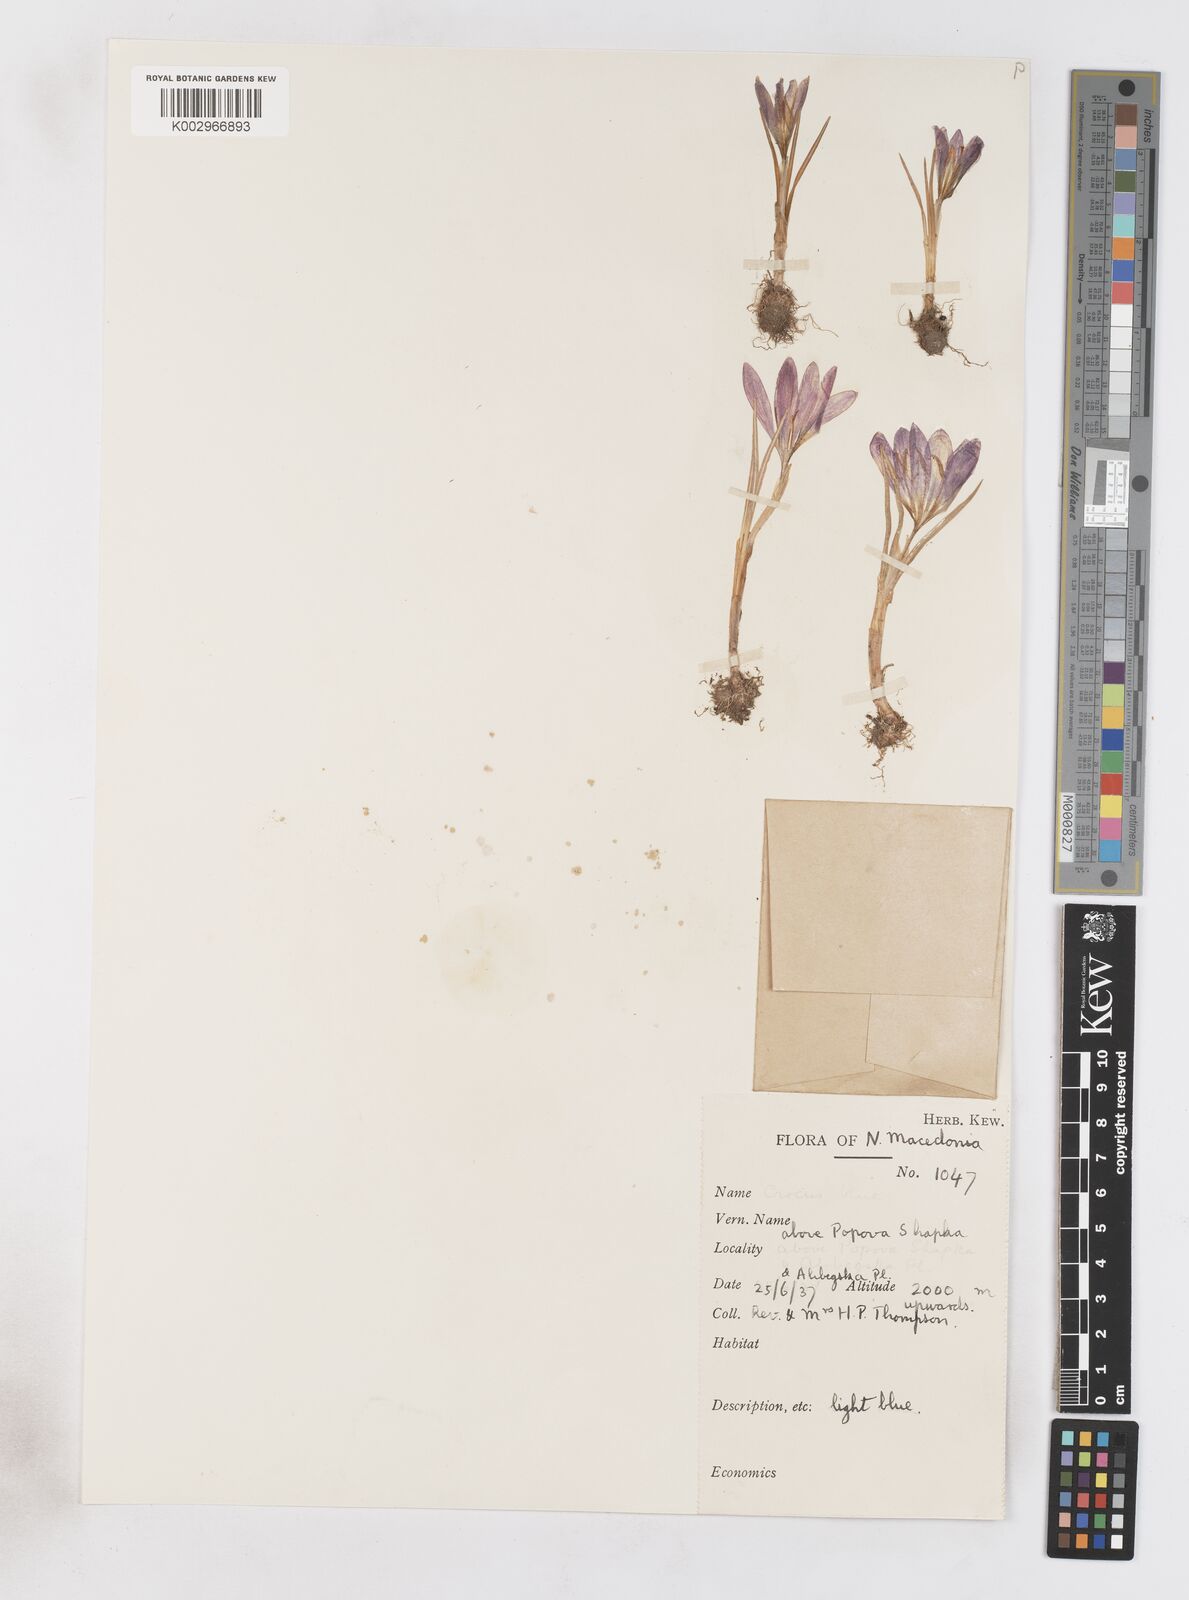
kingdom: Plantae
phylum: Tracheophyta
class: Liliopsida
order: Asparagales
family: Iridaceae
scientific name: Iridaceae
